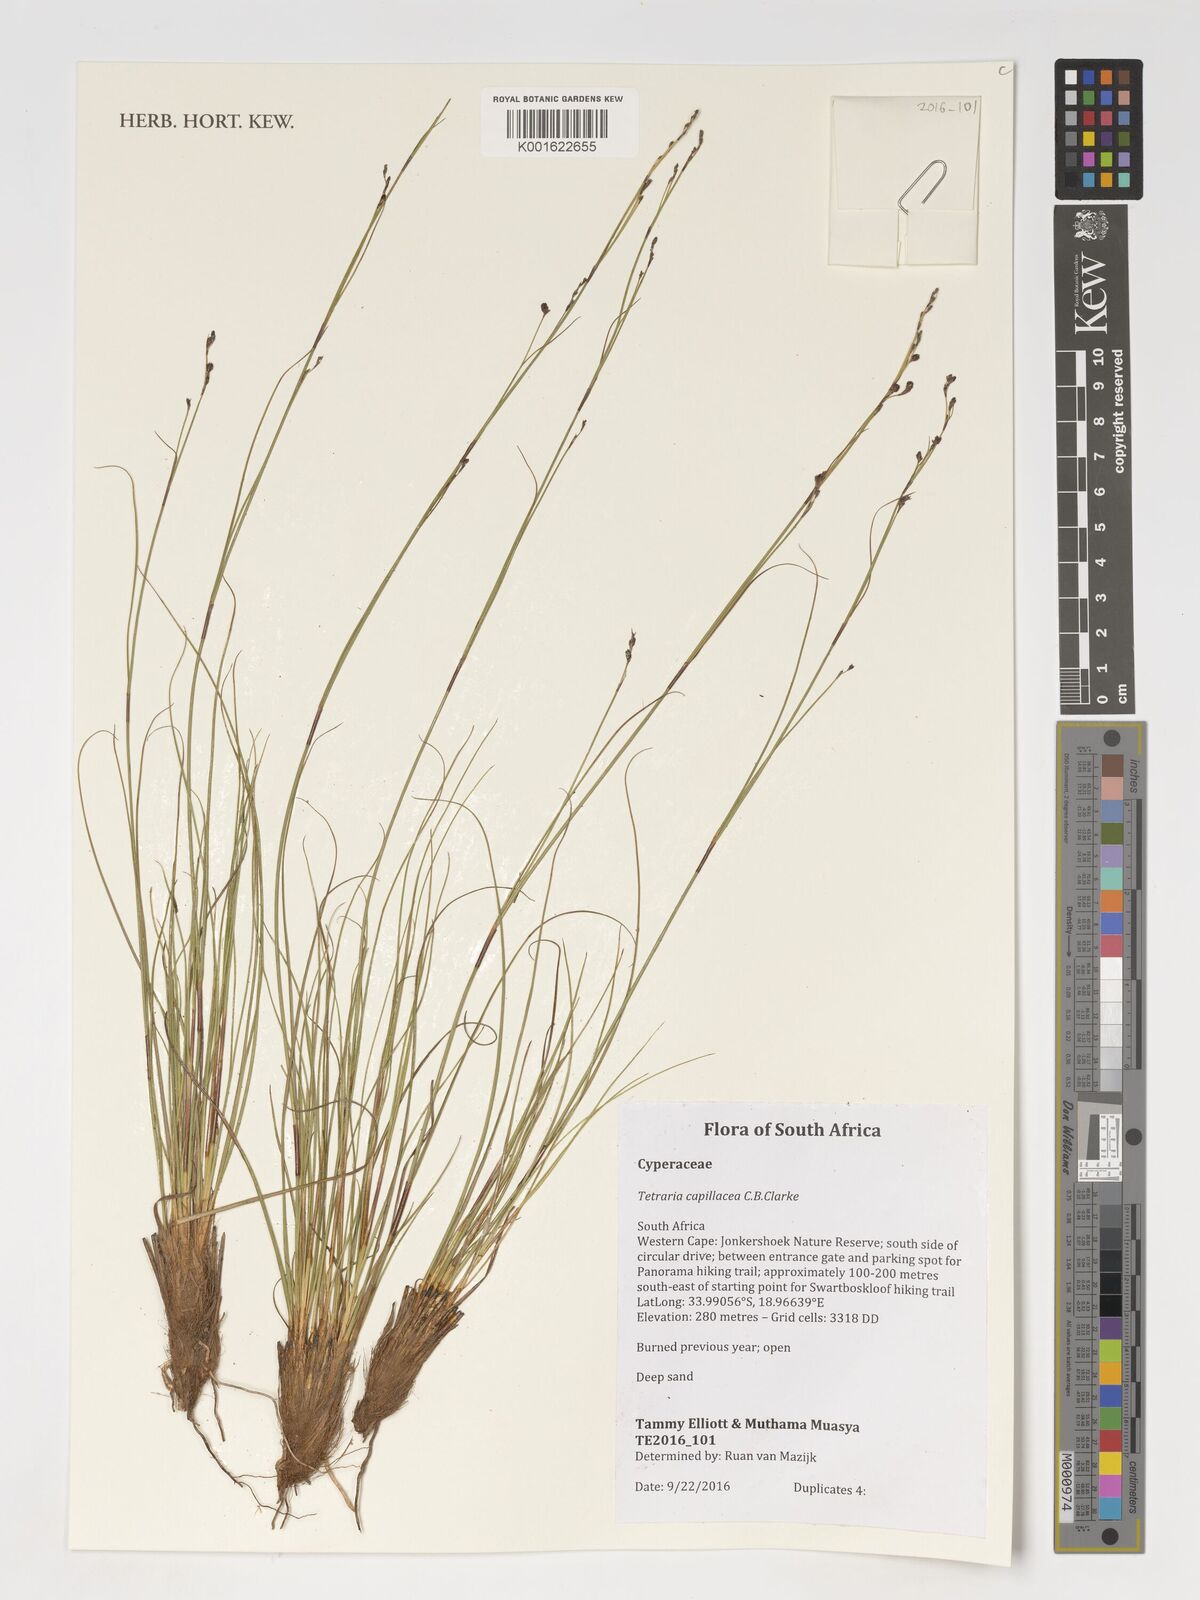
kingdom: Plantae
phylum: Tracheophyta
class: Liliopsida
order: Poales
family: Cyperaceae
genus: Tetraria
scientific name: Tetraria capillacea
